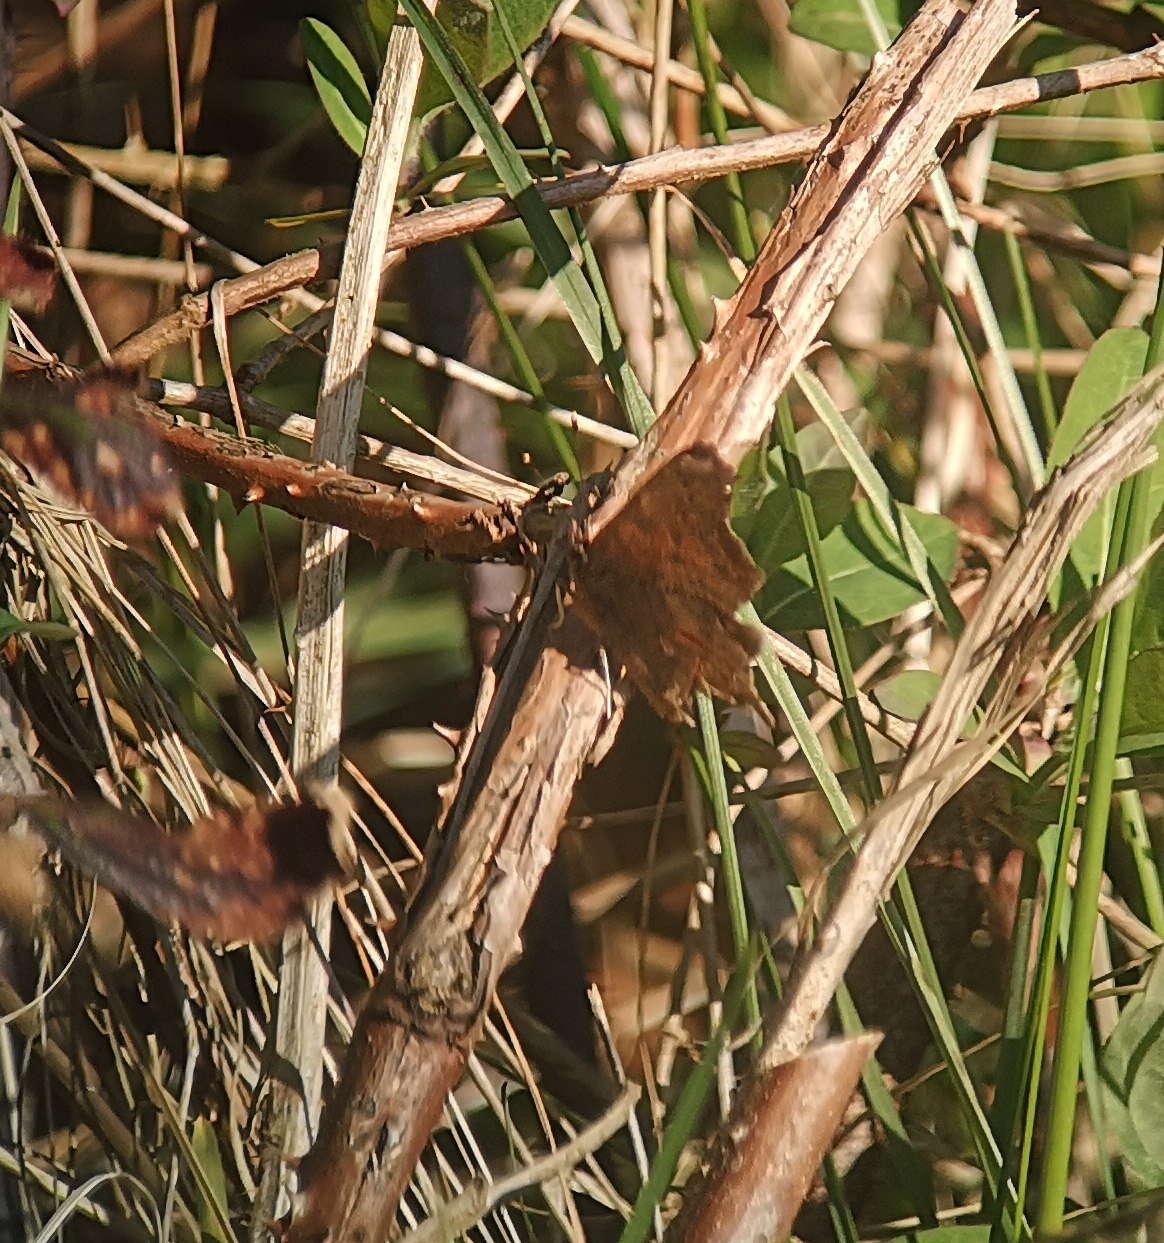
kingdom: Animalia
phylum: Arthropoda
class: Insecta
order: Lepidoptera
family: Nymphalidae
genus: Polygonia
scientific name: Polygonia c-album
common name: Det hvide C
